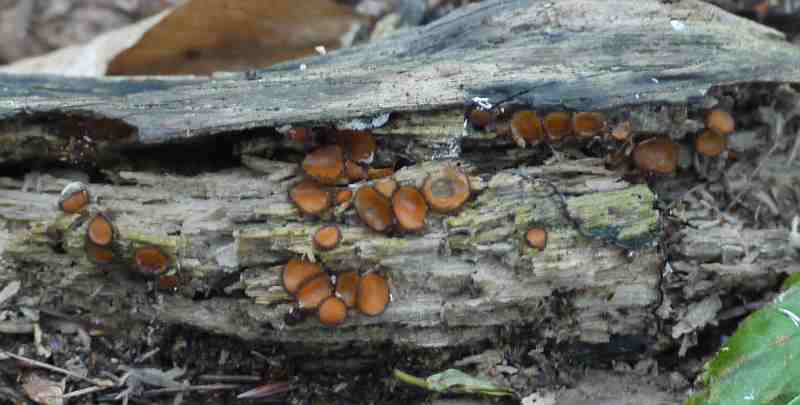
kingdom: Fungi
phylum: Ascomycota
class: Pezizomycetes
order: Pezizales
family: Pyronemataceae
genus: Scutellinia
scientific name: Scutellinia scutellata
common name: frynset skjoldbæger
